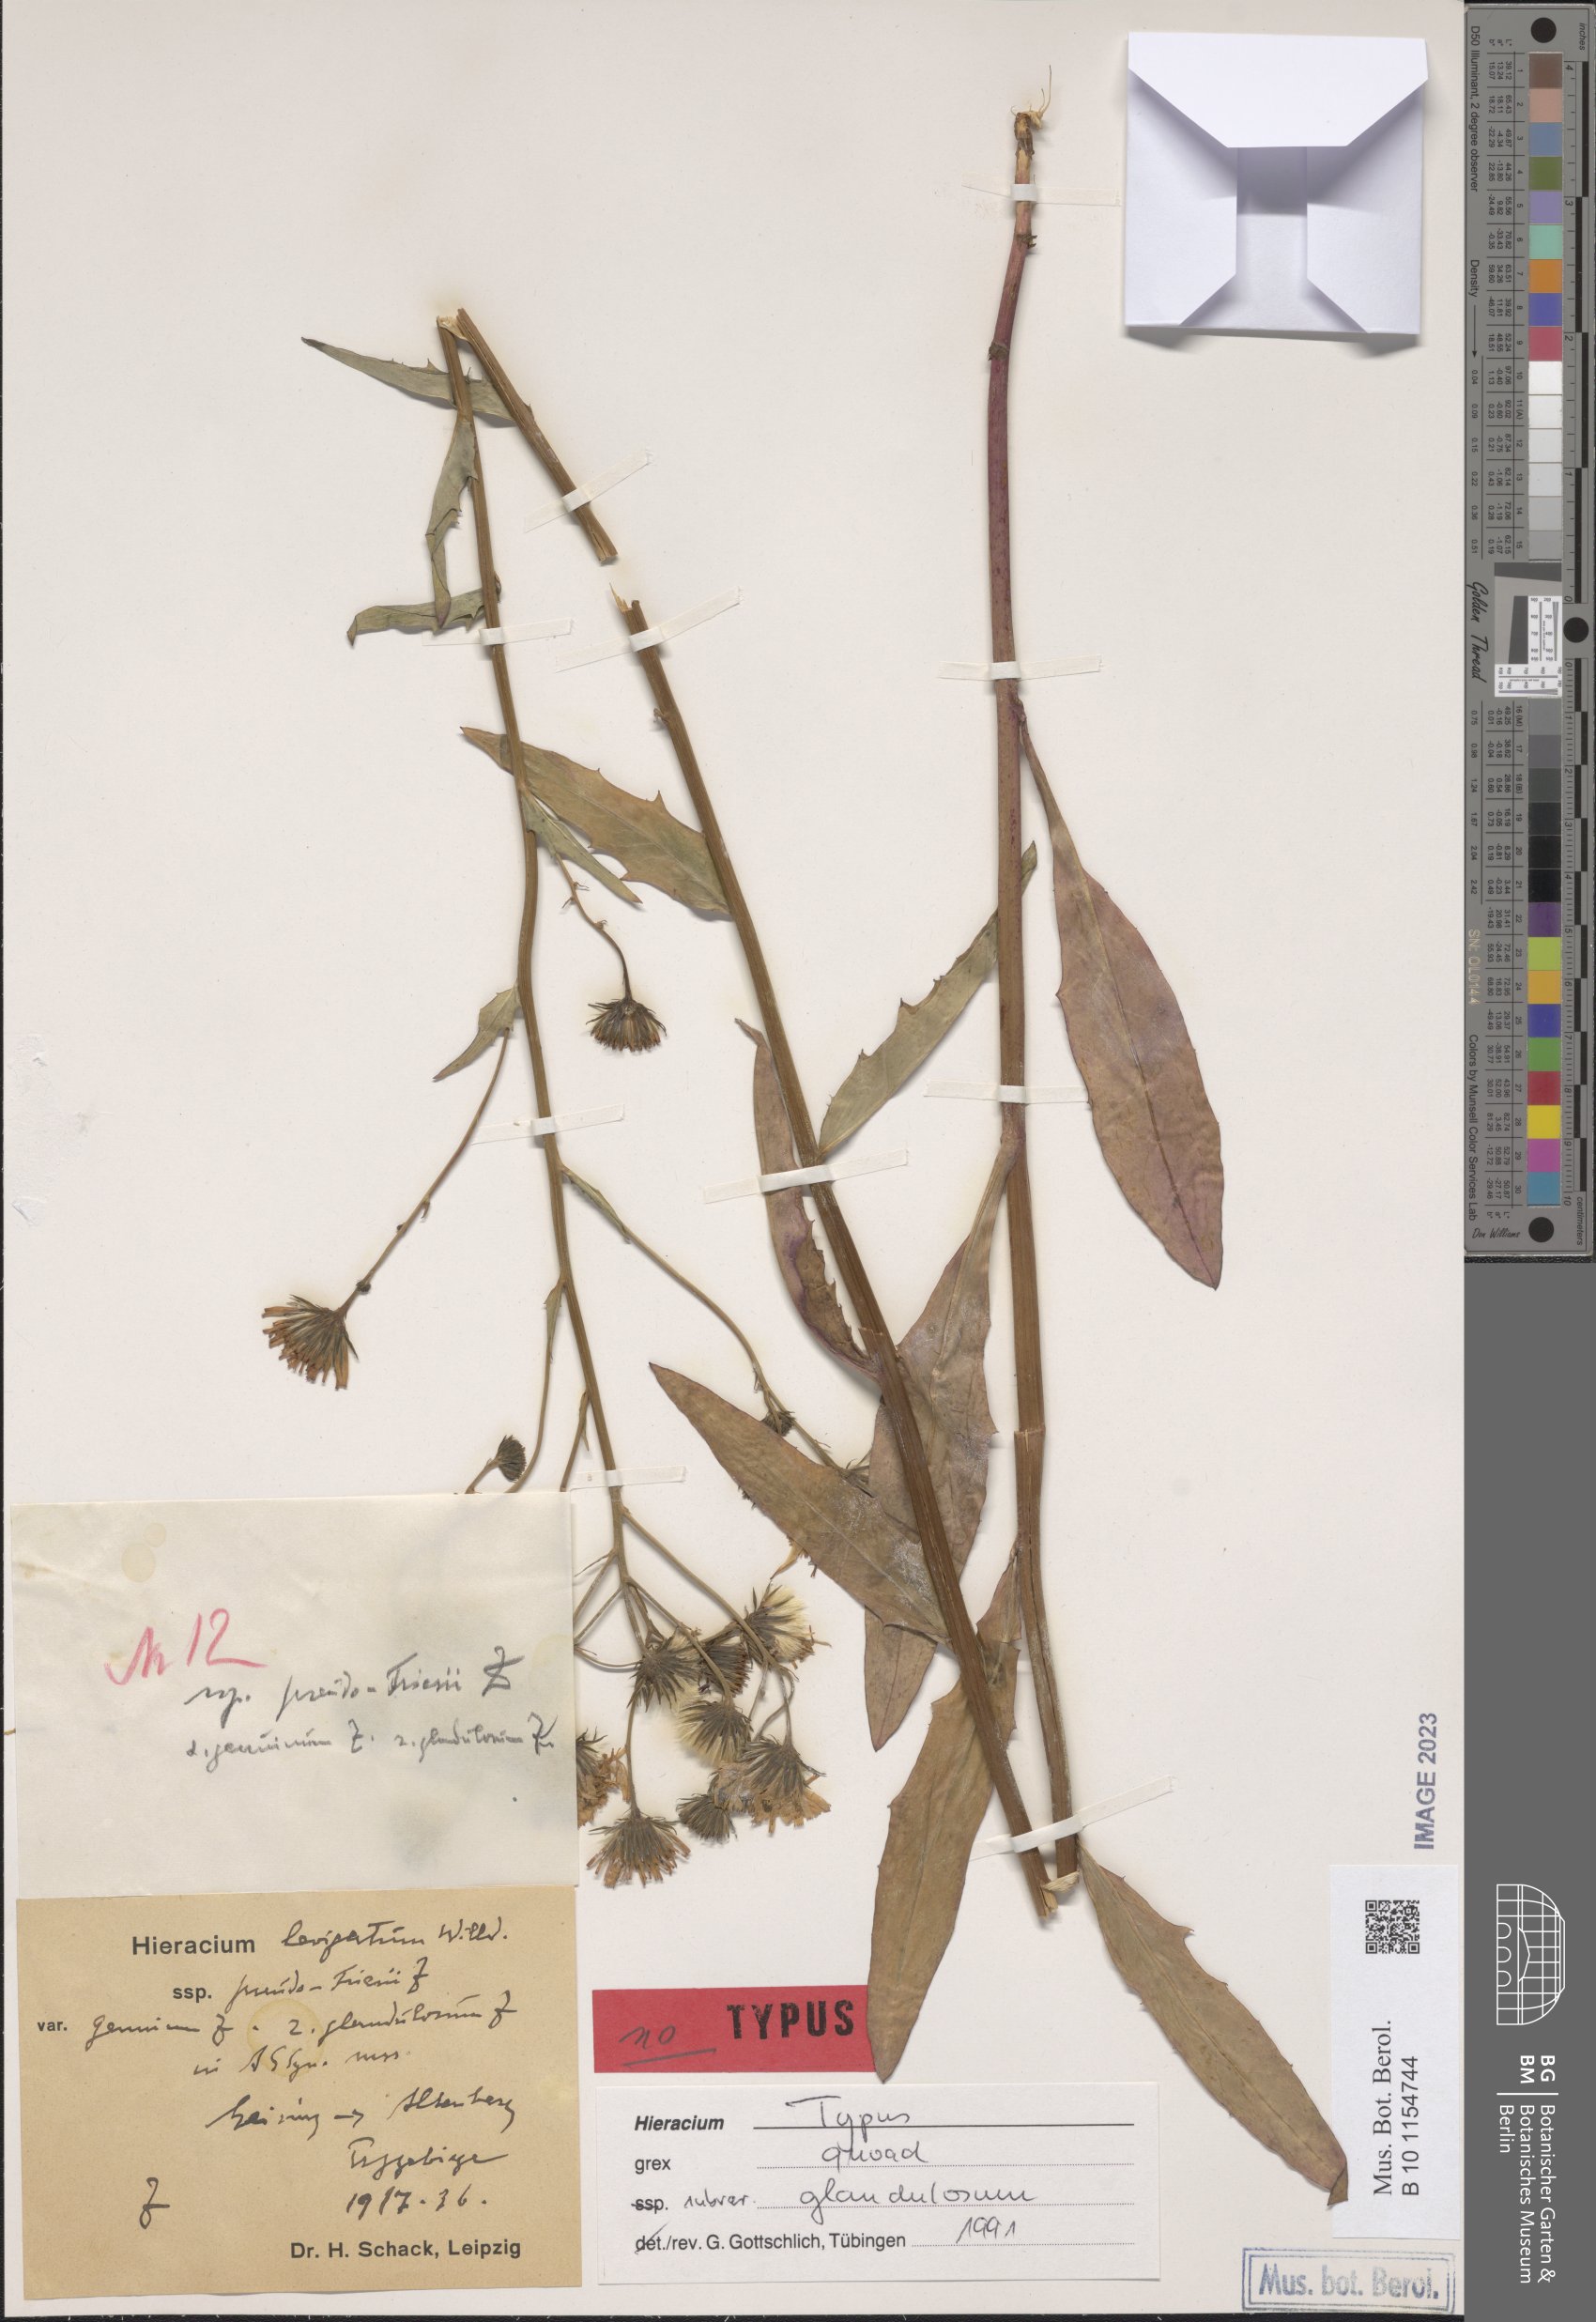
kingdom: Plantae
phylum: Tracheophyta
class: Magnoliopsida
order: Asterales
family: Asteraceae
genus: Hieracium
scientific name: Hieracium laevigatum
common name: Smooth hawkweed
